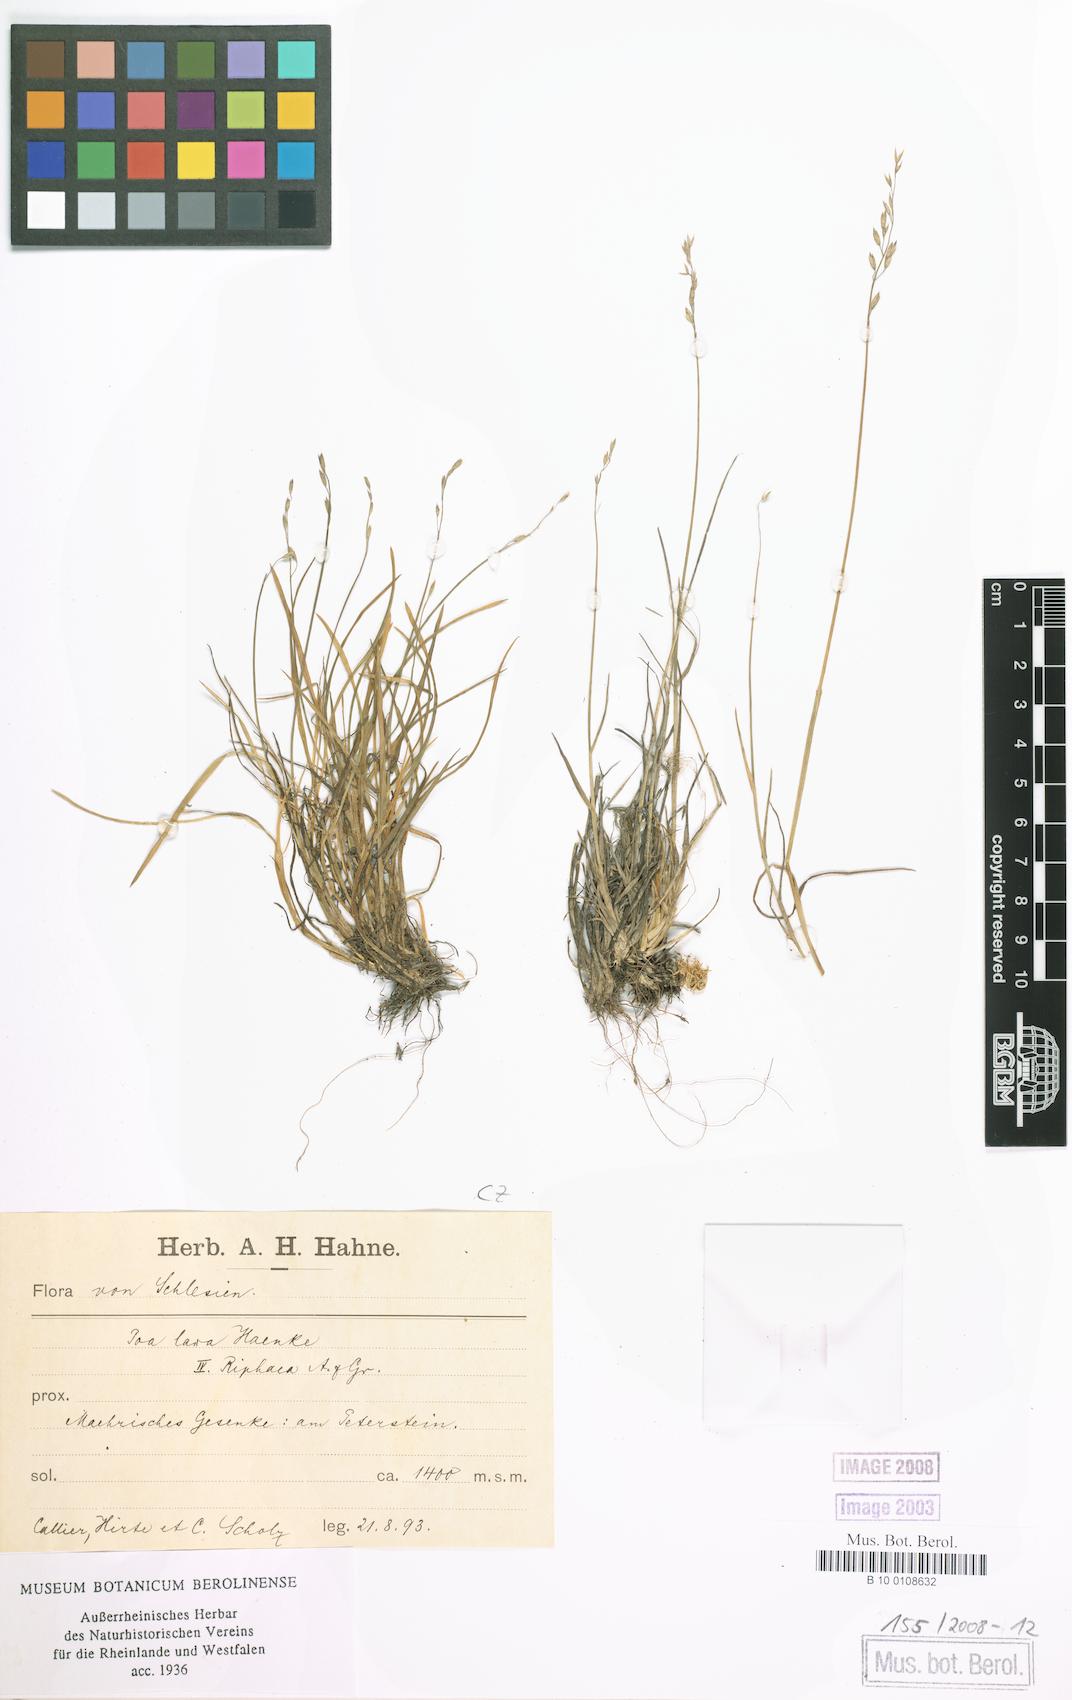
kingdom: Plantae
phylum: Tracheophyta
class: Liliopsida
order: Poales
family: Poaceae
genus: Poa
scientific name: Poa glauca
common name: Glaucous bluegrass
